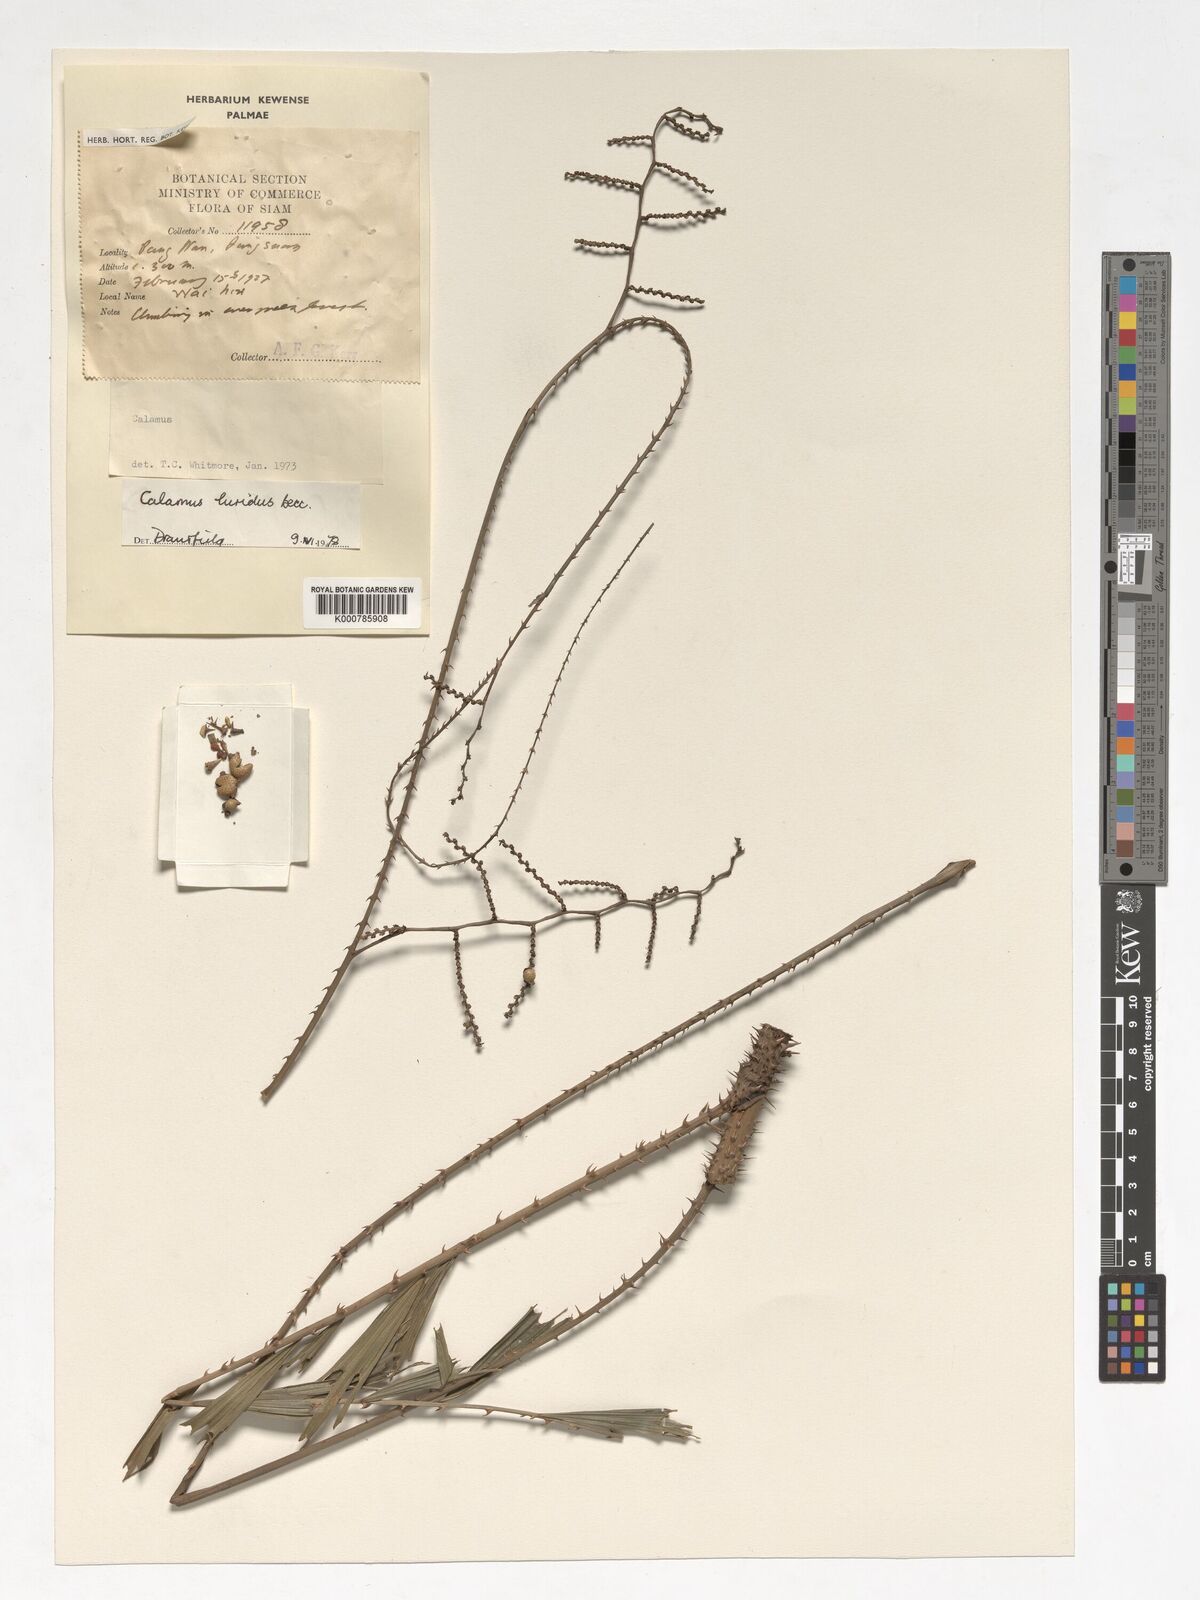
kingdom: Plantae
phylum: Tracheophyta
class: Liliopsida
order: Arecales
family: Arecaceae
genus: Calamus
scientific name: Calamus micranthus
